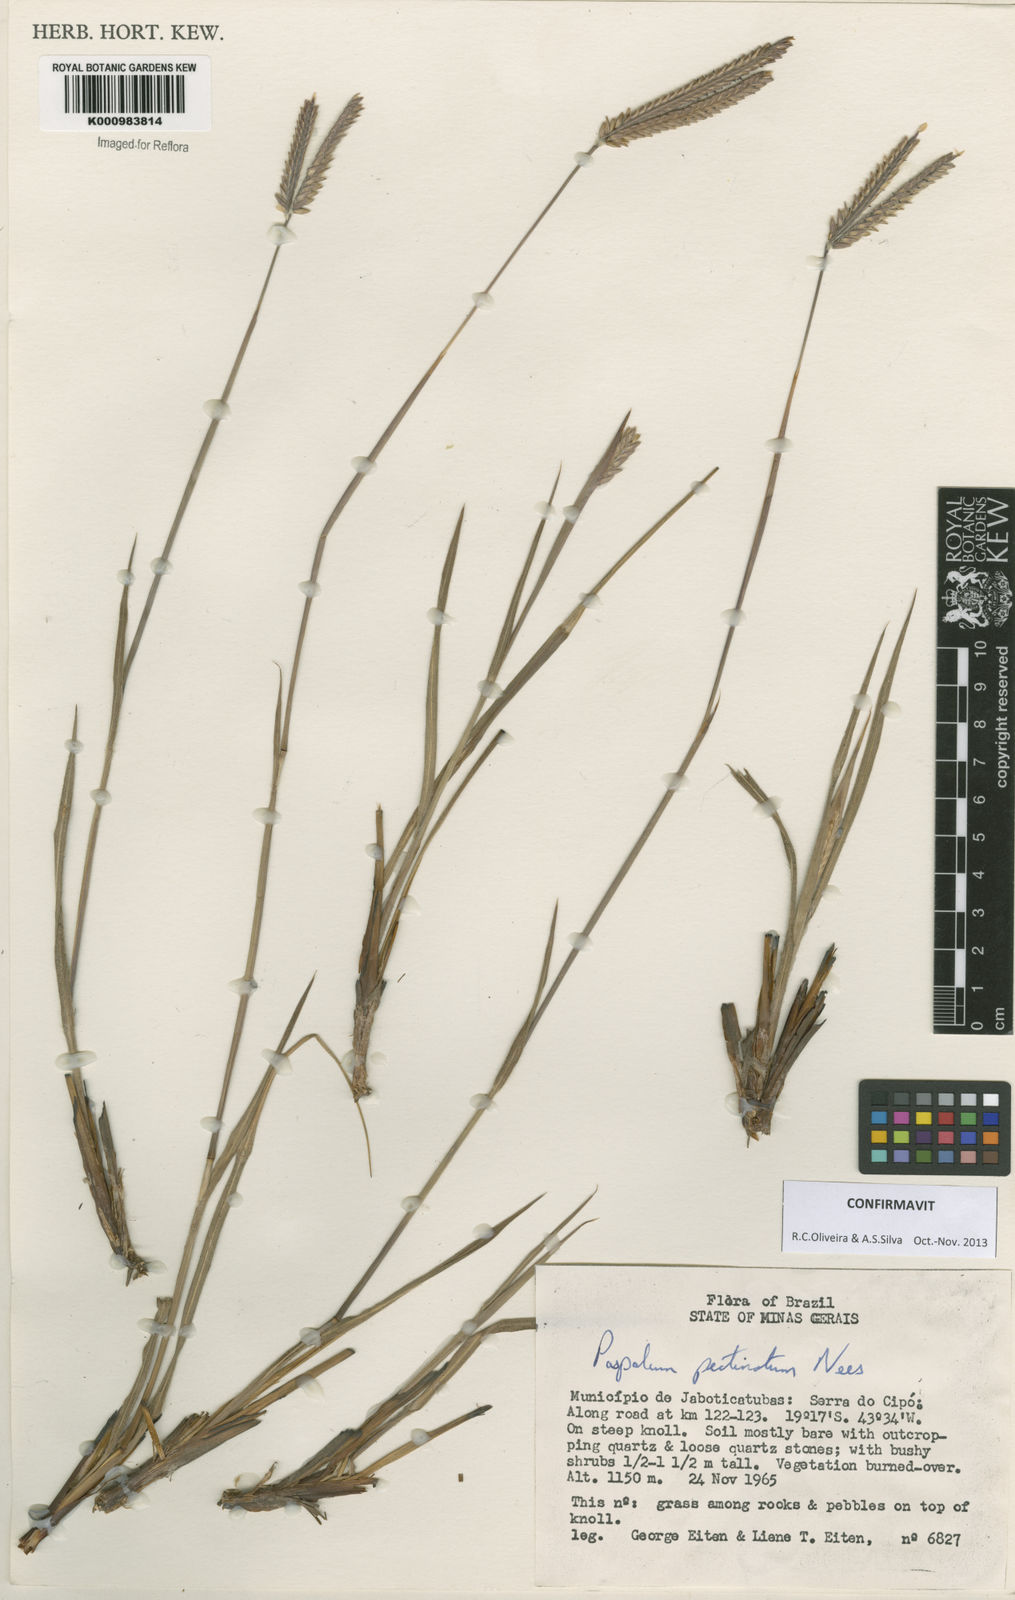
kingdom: Plantae
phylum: Tracheophyta
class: Liliopsida
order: Poales
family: Poaceae
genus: Paspalum
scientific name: Paspalum
